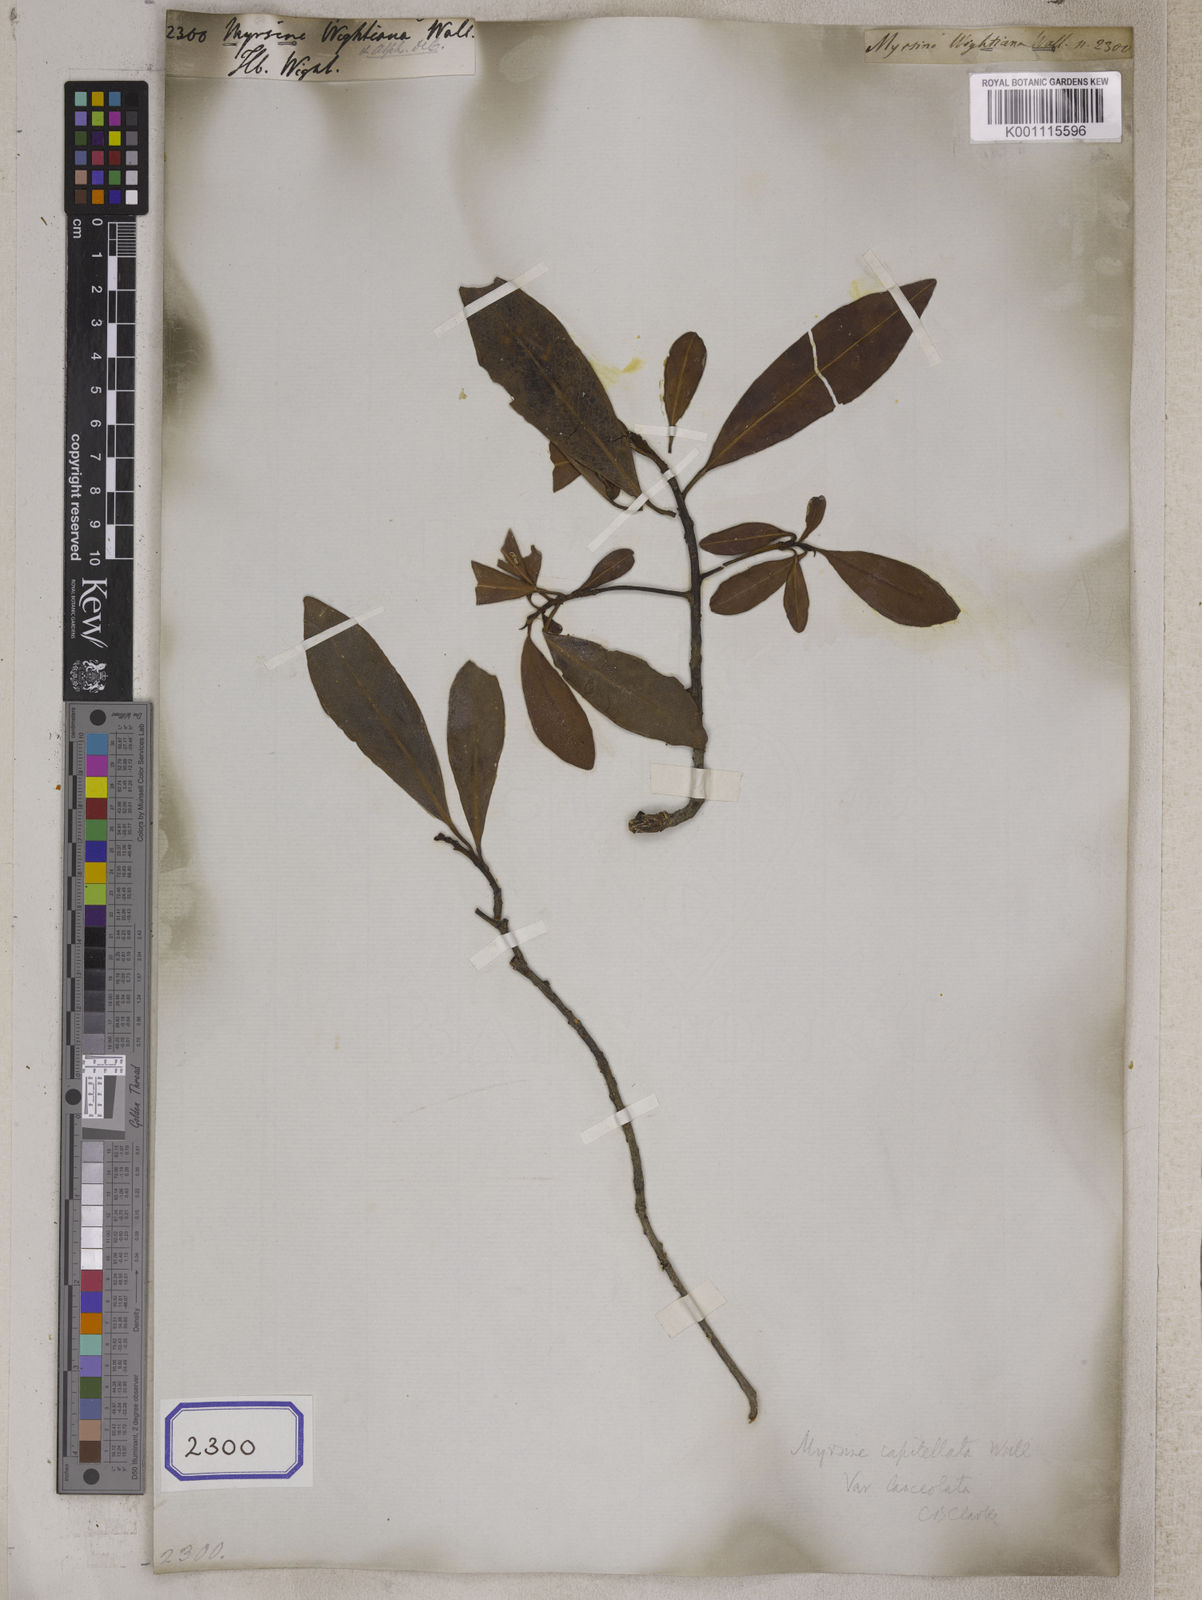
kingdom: Plantae
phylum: Tracheophyta
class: Magnoliopsida
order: Ericales
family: Primulaceae
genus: Myrsine
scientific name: Myrsine
